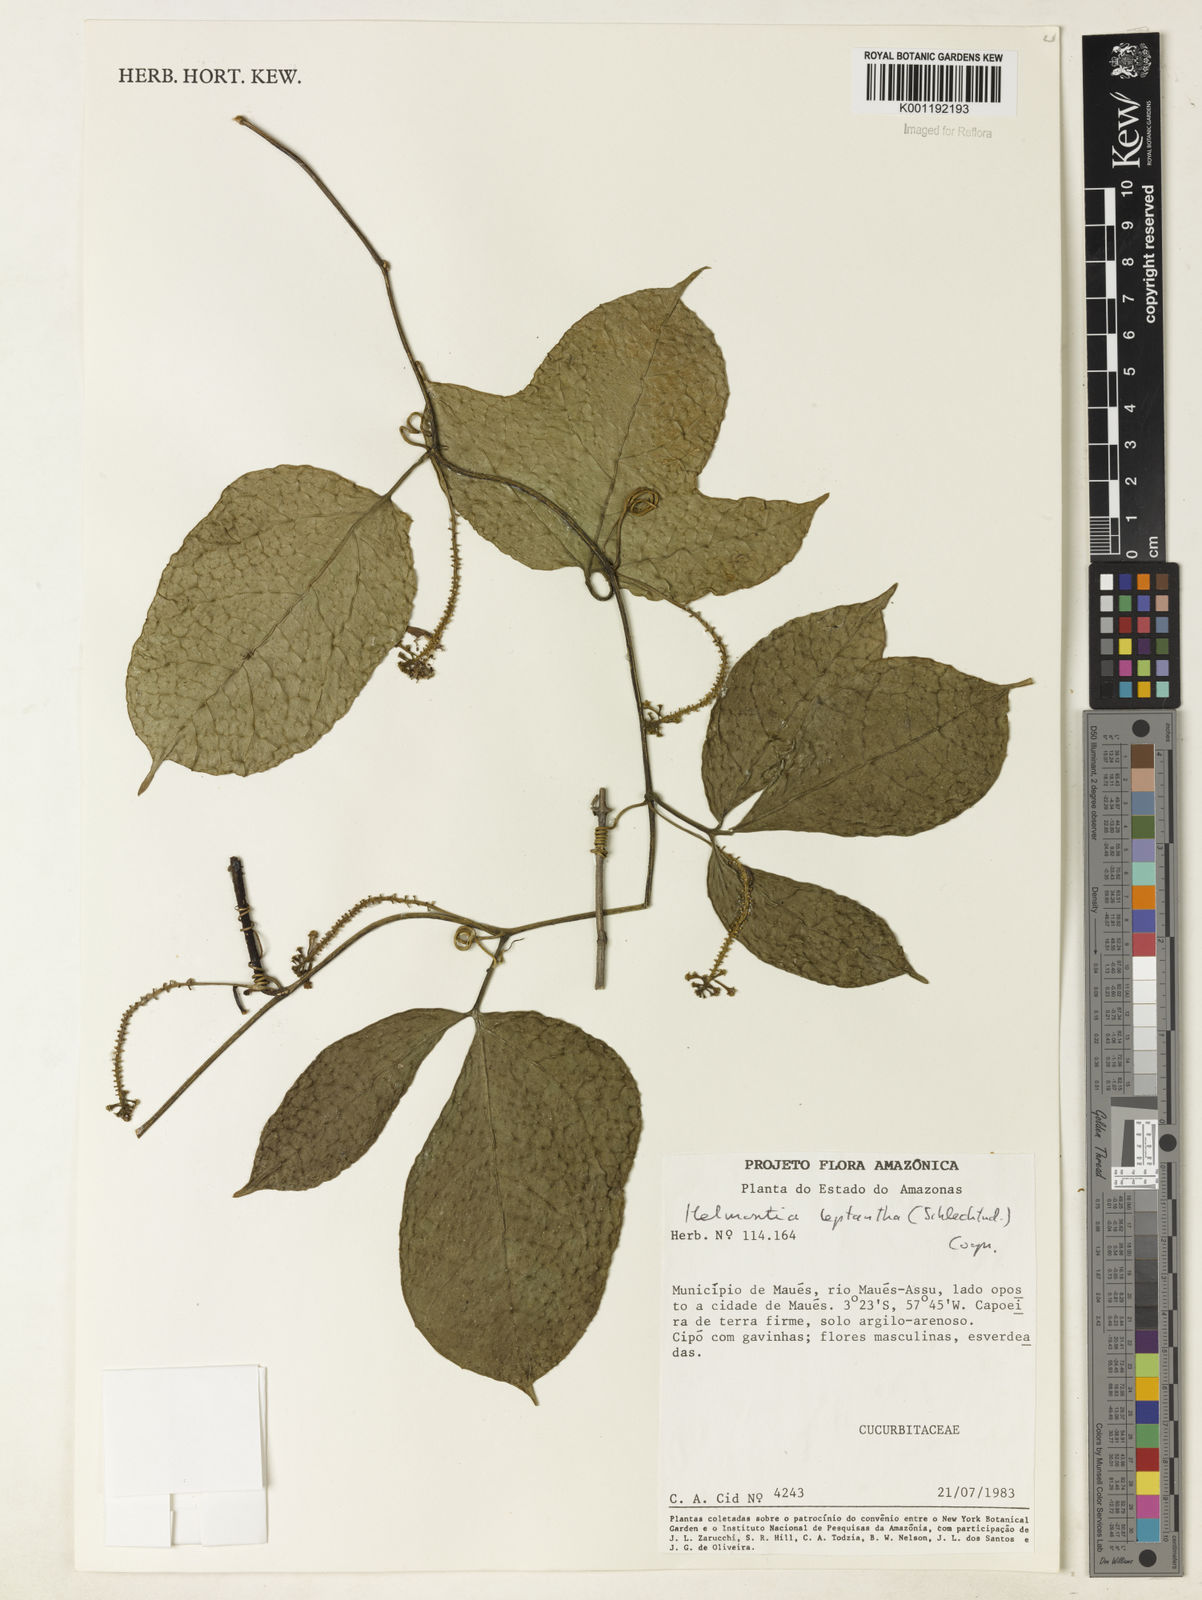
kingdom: Plantae
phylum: Tracheophyta
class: Magnoliopsida
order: Cucurbitales
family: Cucurbitaceae
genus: Helmontia
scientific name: Helmontia leptantha
